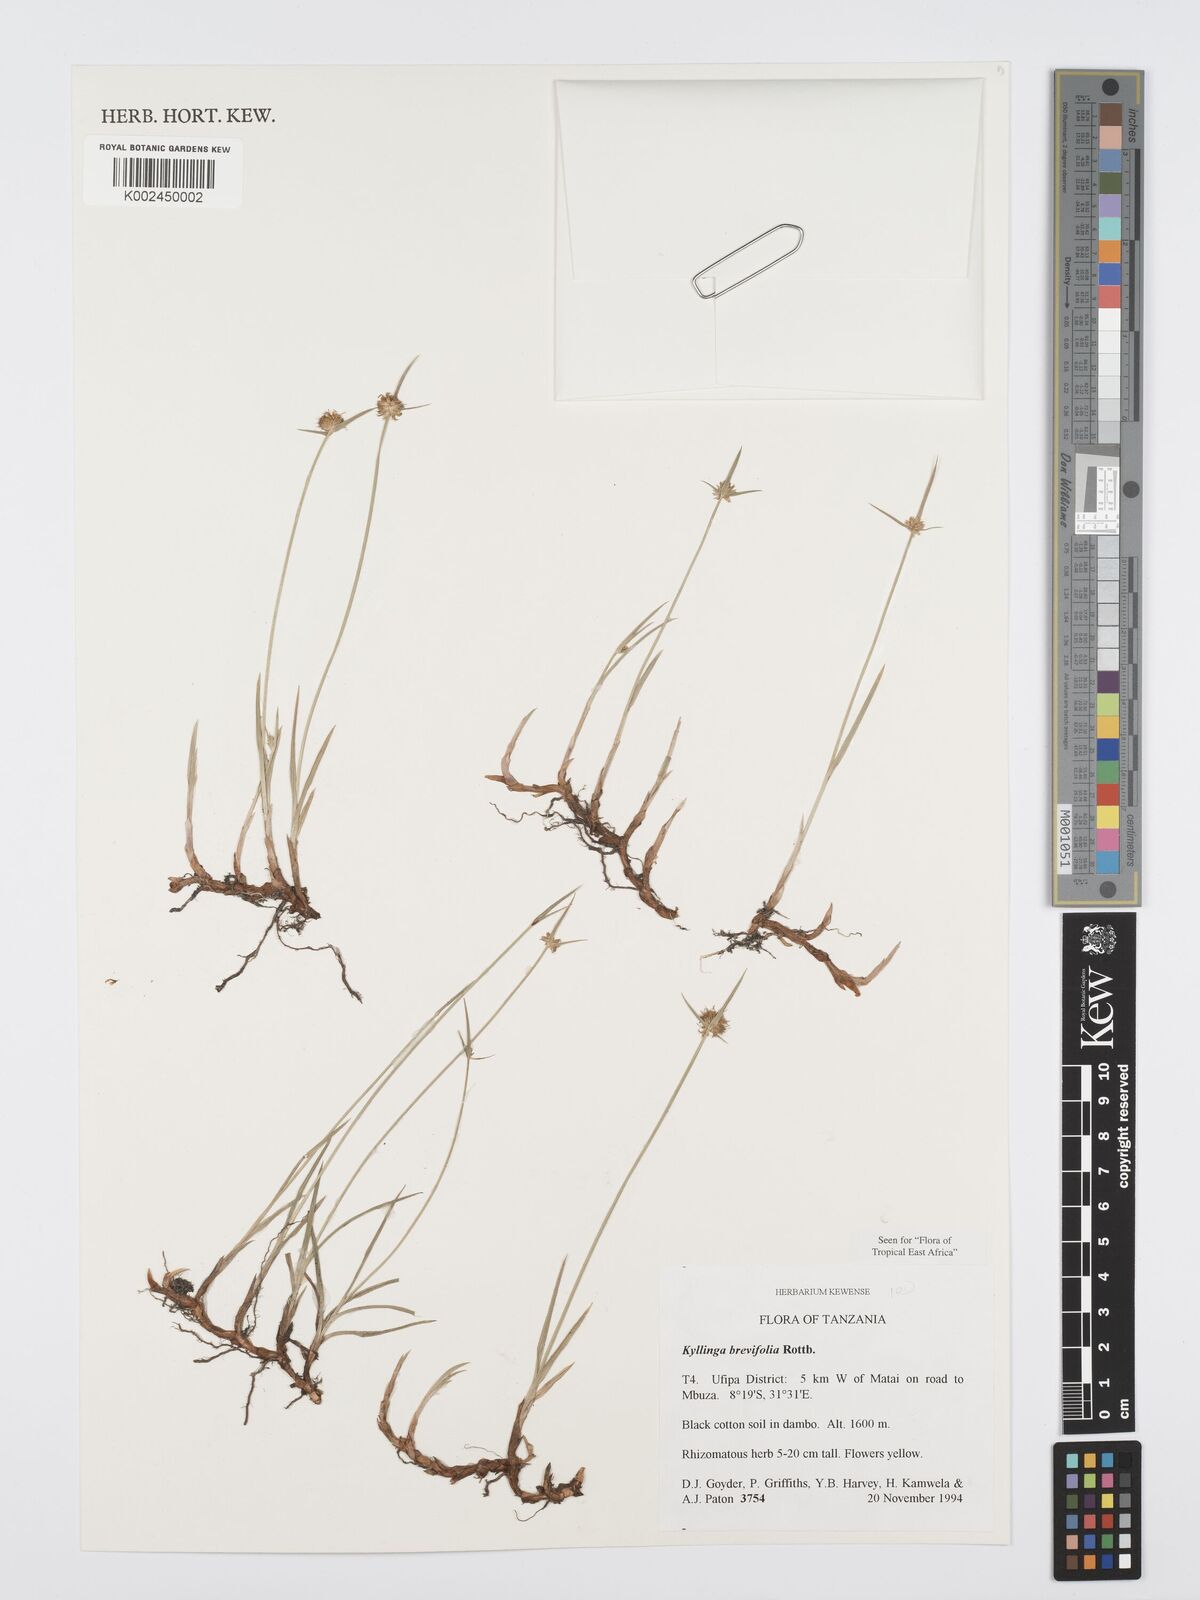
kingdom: Plantae
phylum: Tracheophyta
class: Liliopsida
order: Poales
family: Cyperaceae
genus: Cyperus
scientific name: Cyperus brevifolius
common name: Globe kyllinga
